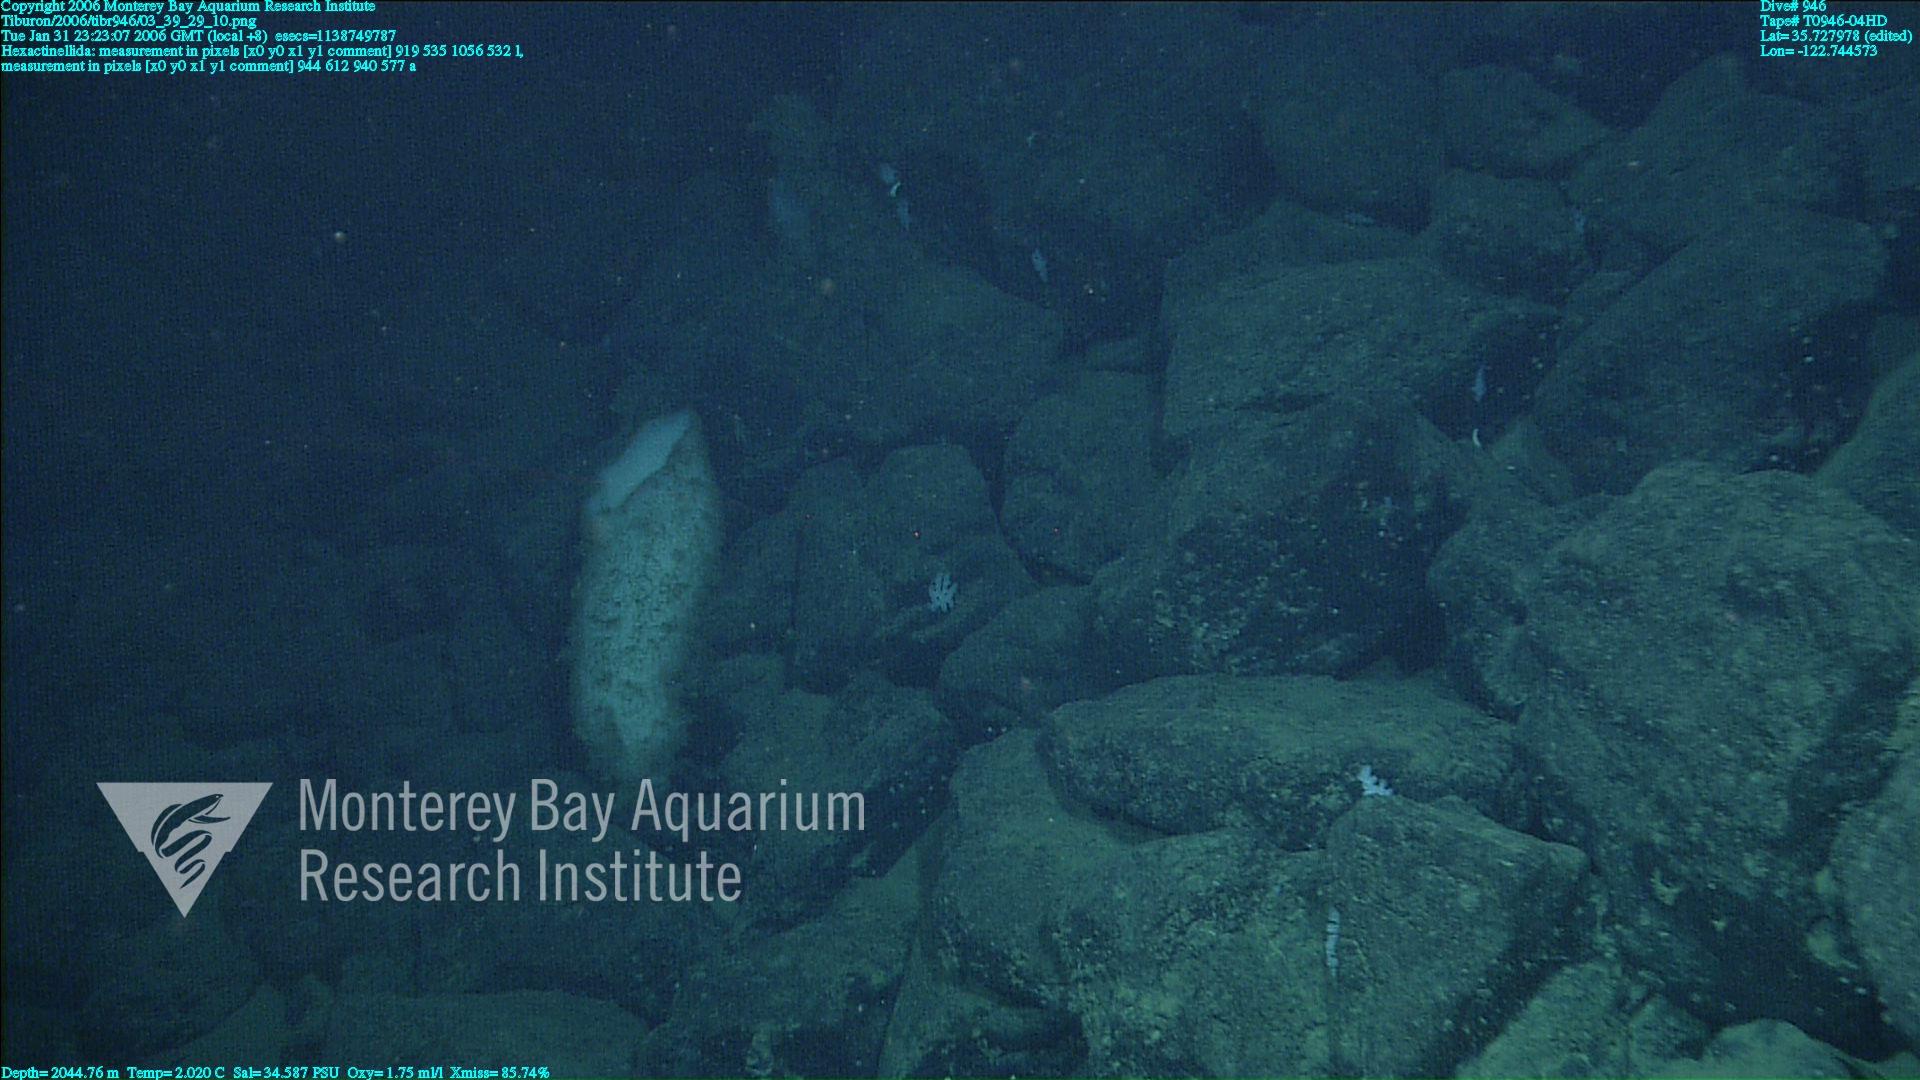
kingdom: Animalia
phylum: Porifera
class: Hexactinellida
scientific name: Hexactinellida
